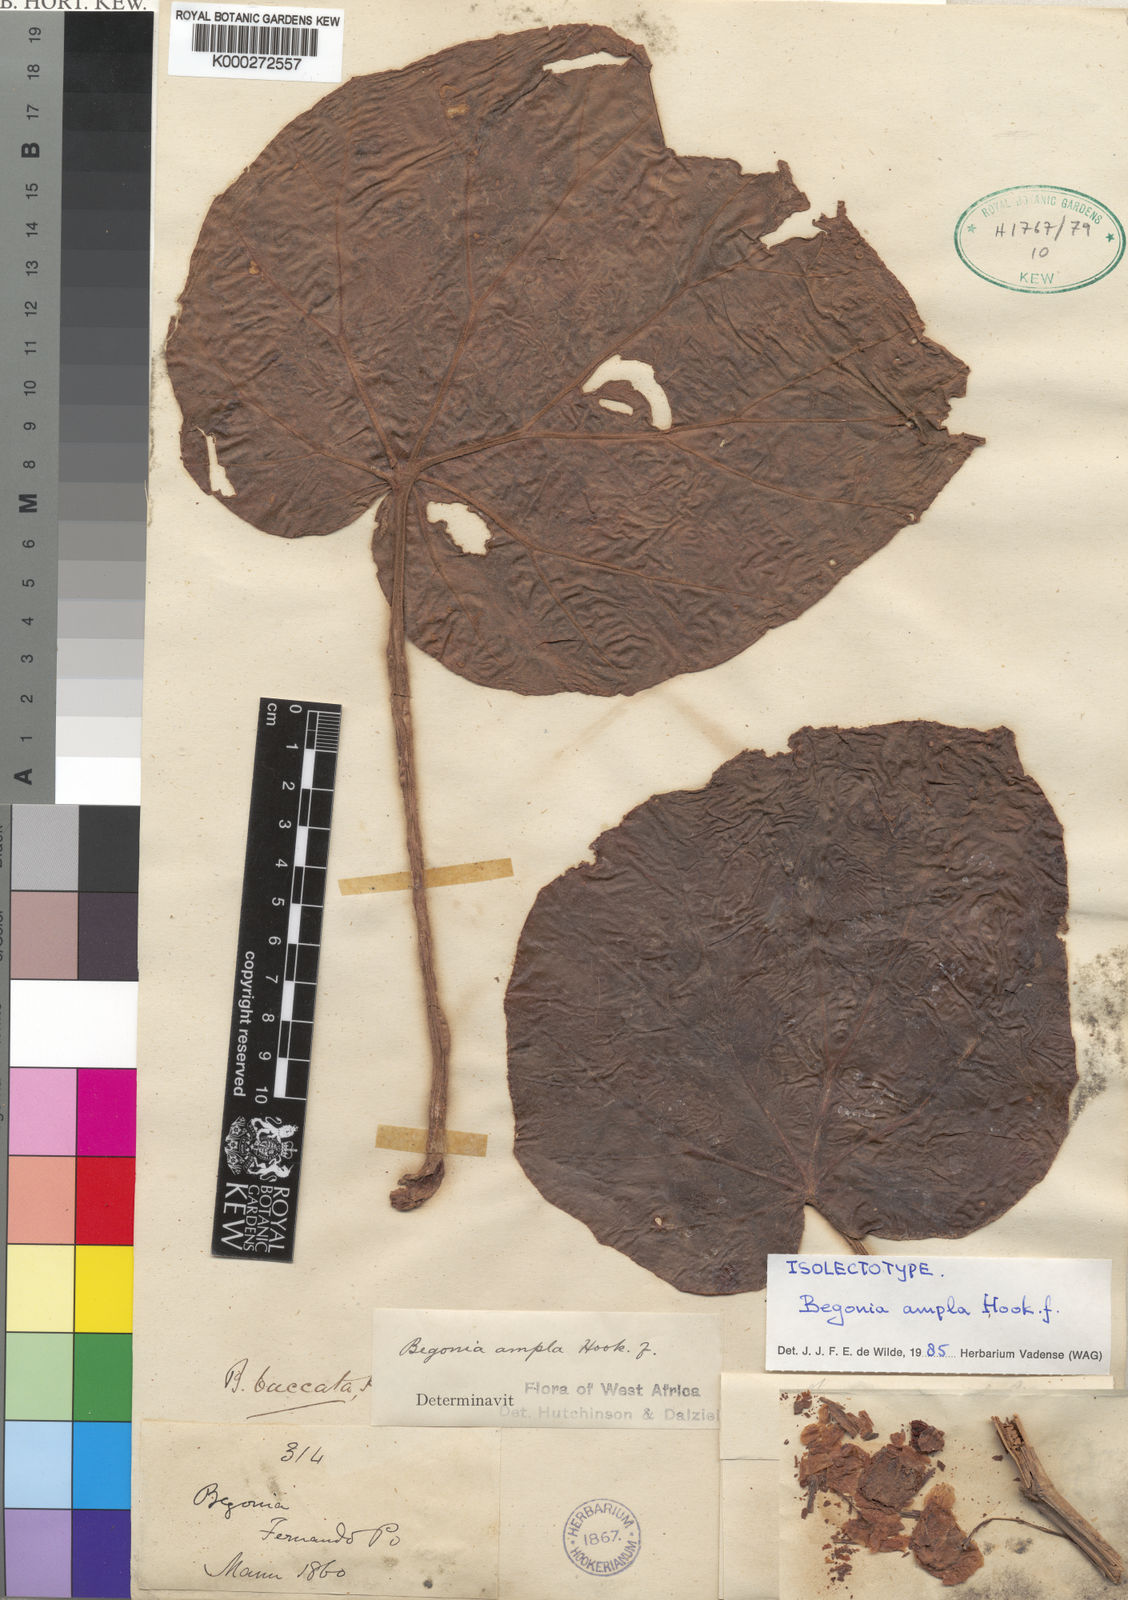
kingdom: Plantae
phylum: Tracheophyta
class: Magnoliopsida
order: Cucurbitales
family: Begoniaceae
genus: Begonia
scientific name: Begonia ampla
